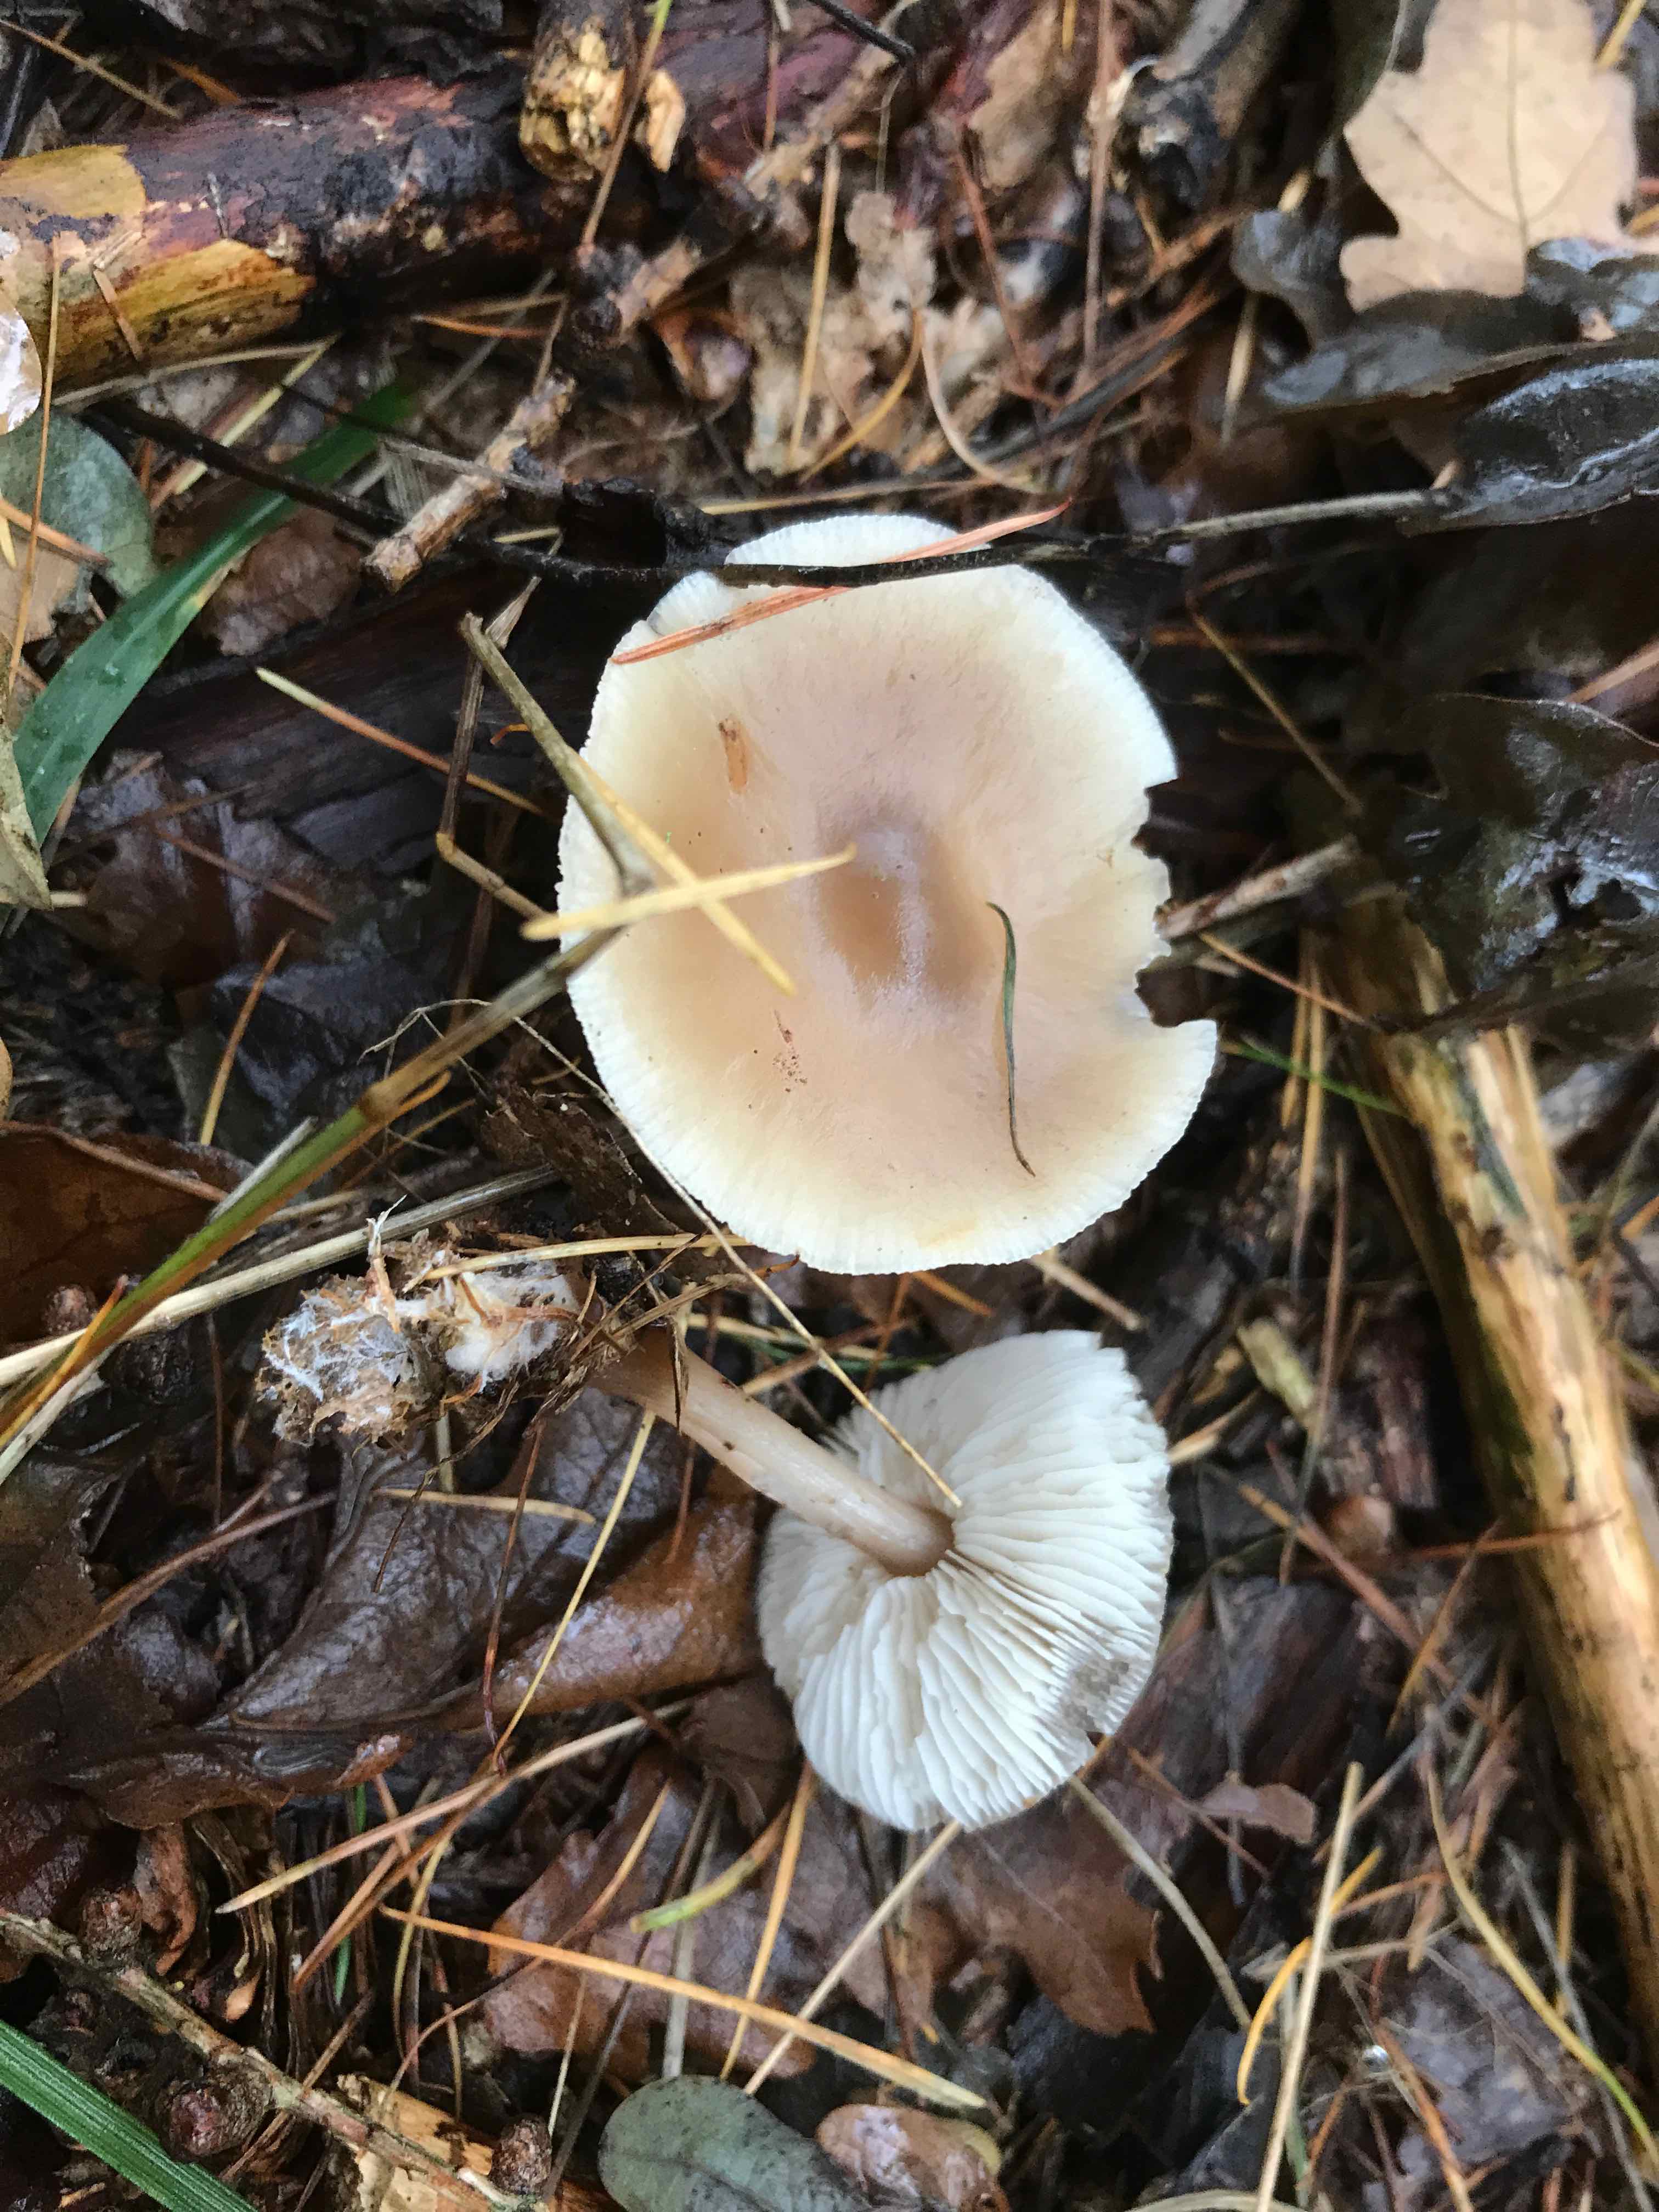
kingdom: Fungi
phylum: Basidiomycota
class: Agaricomycetes
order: Agaricales
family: Omphalotaceae
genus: Rhodocollybia
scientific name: Rhodocollybia asema
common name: horngrå fladhat
